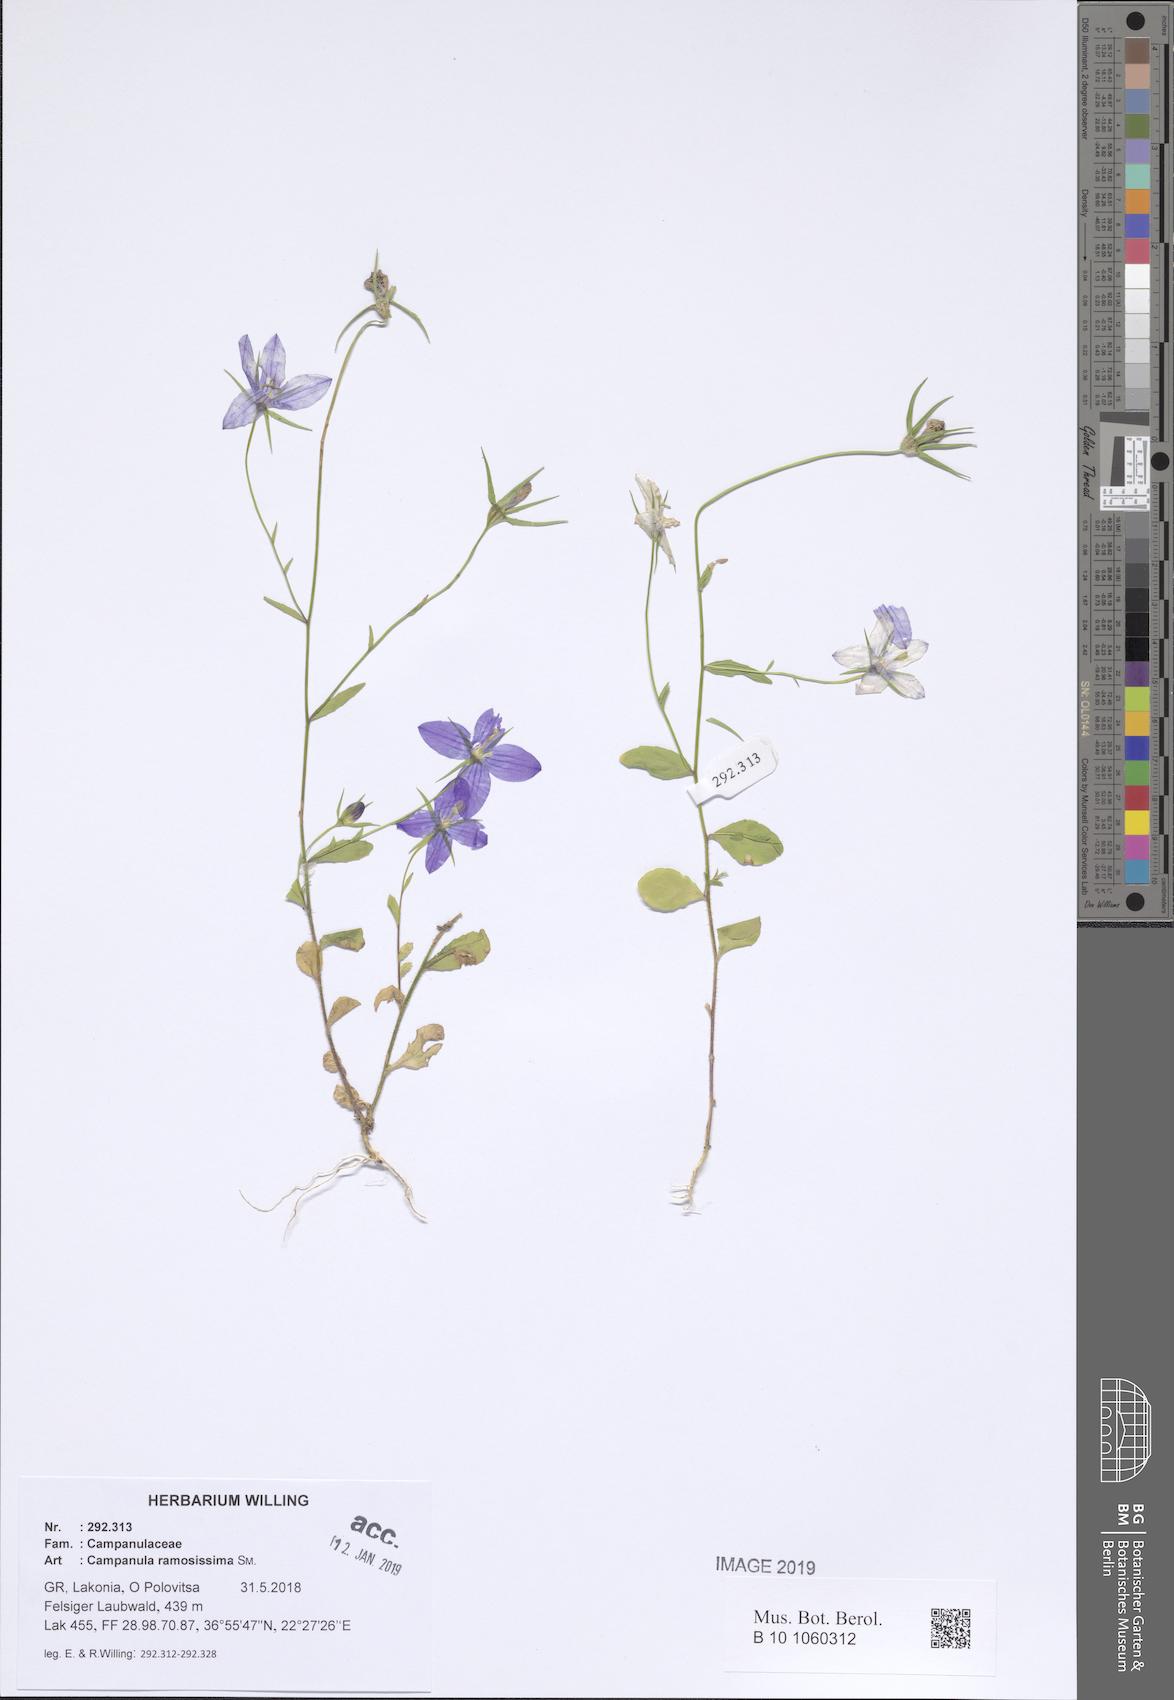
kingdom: Plantae
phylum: Tracheophyta
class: Magnoliopsida
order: Asterales
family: Campanulaceae
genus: Campanula
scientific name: Campanula ramosissima
